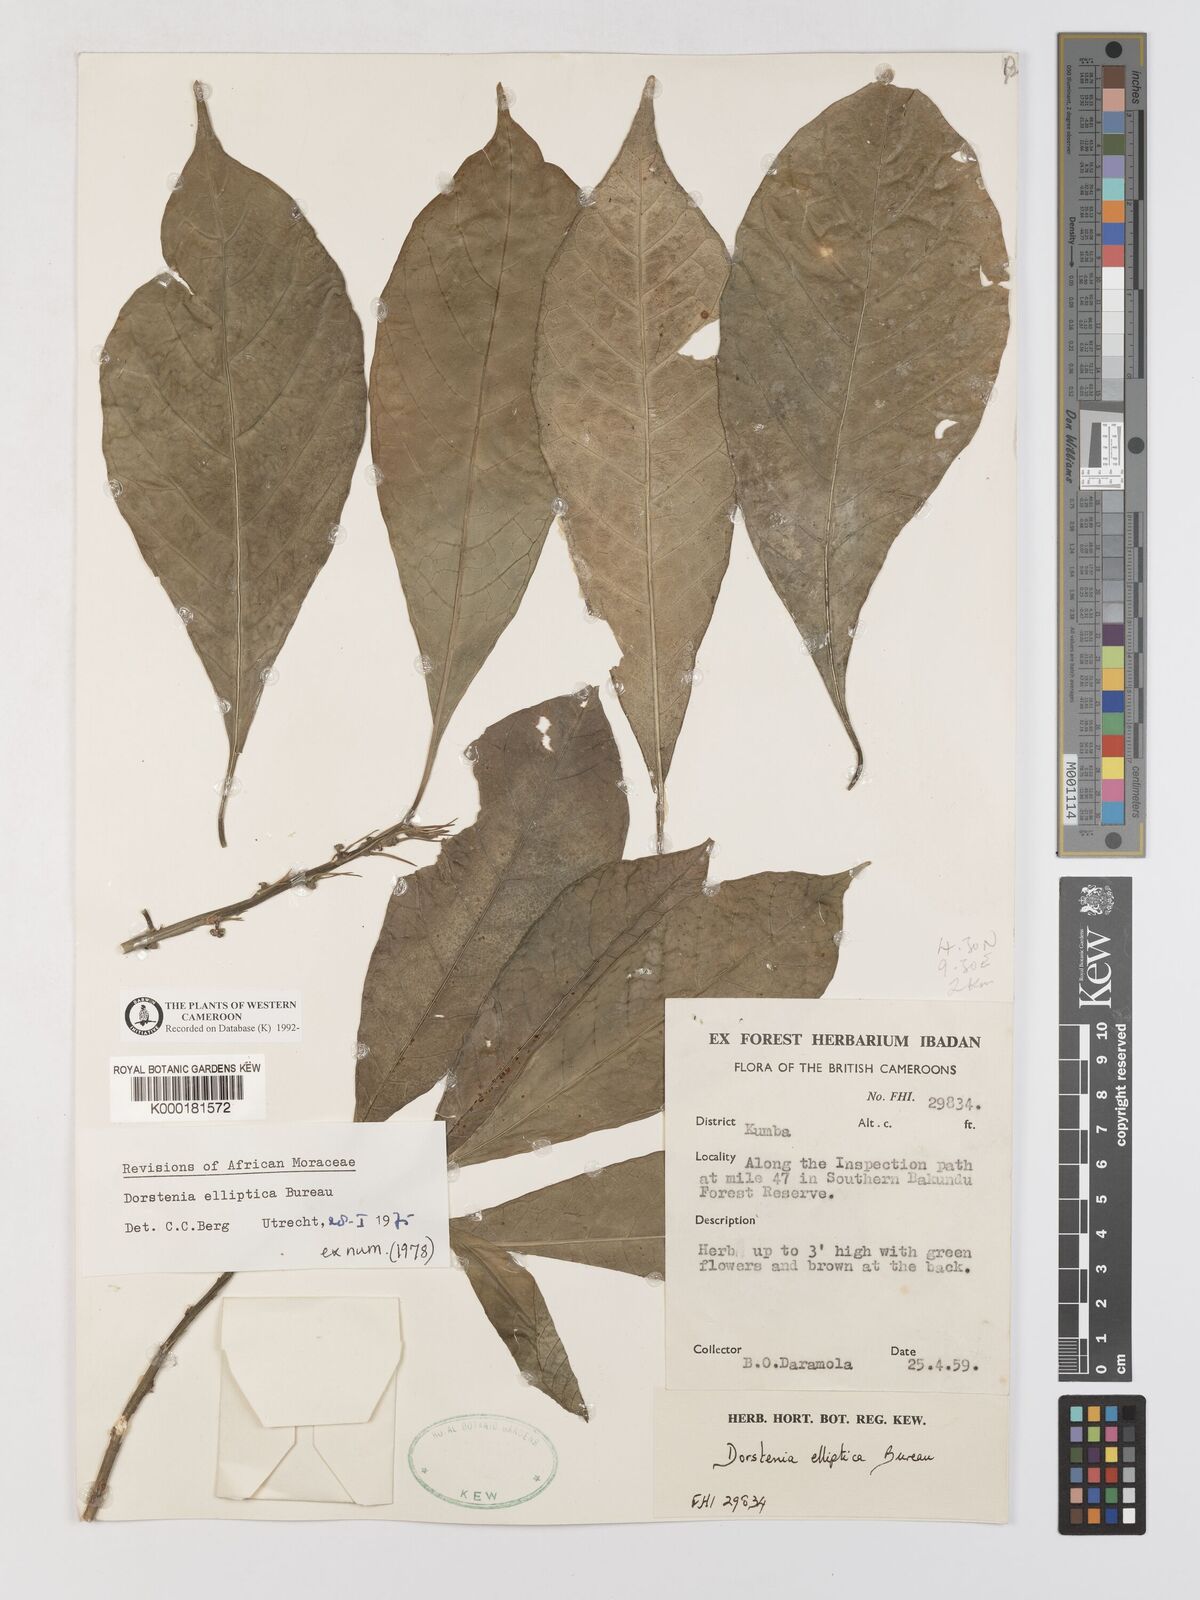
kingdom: Plantae
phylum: Tracheophyta
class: Magnoliopsida
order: Rosales
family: Moraceae
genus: Dorstenia
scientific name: Dorstenia elliptica
